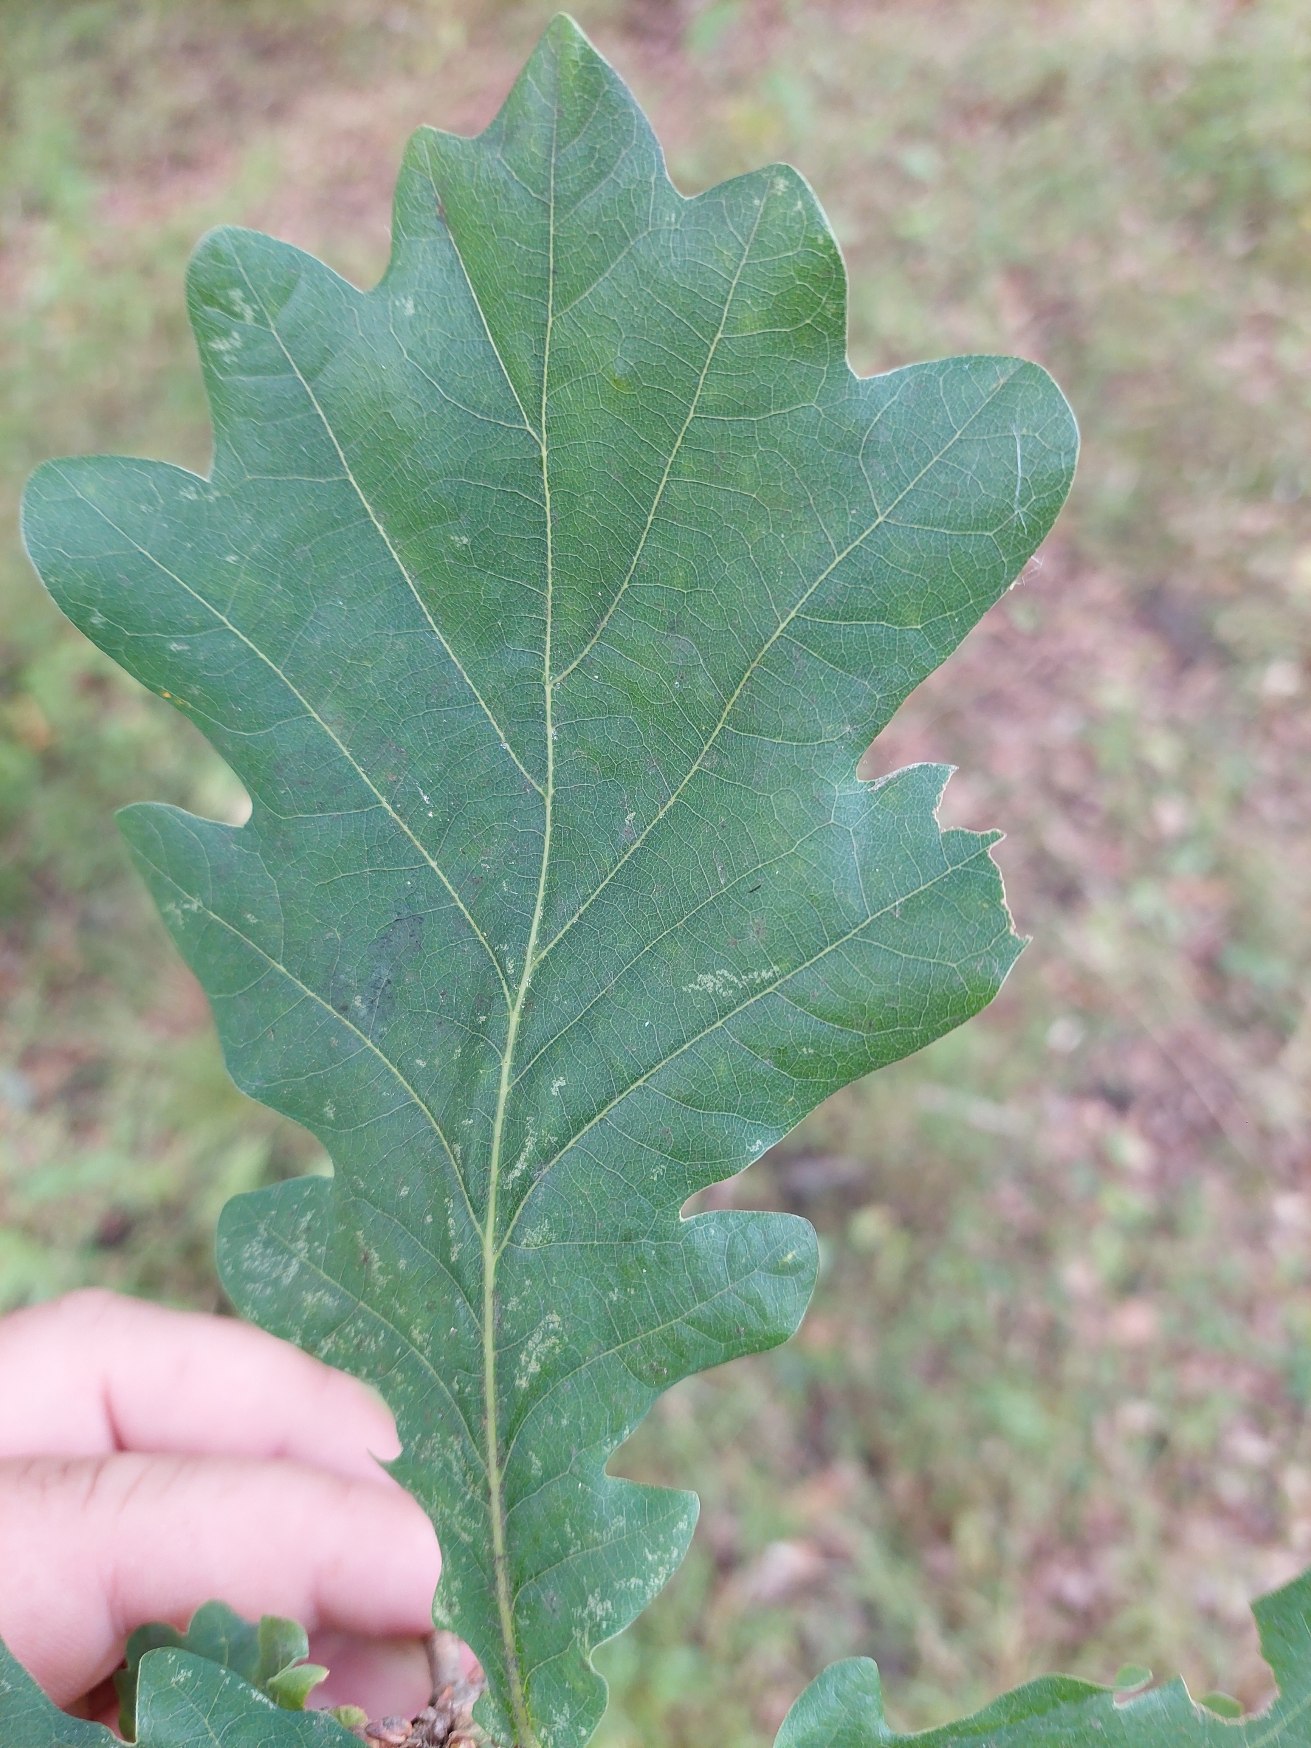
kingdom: Plantae
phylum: Tracheophyta
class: Magnoliopsida
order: Fagales
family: Fagaceae
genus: Quercus
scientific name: Quercus robur
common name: Stilk-eg/almindelig eg
